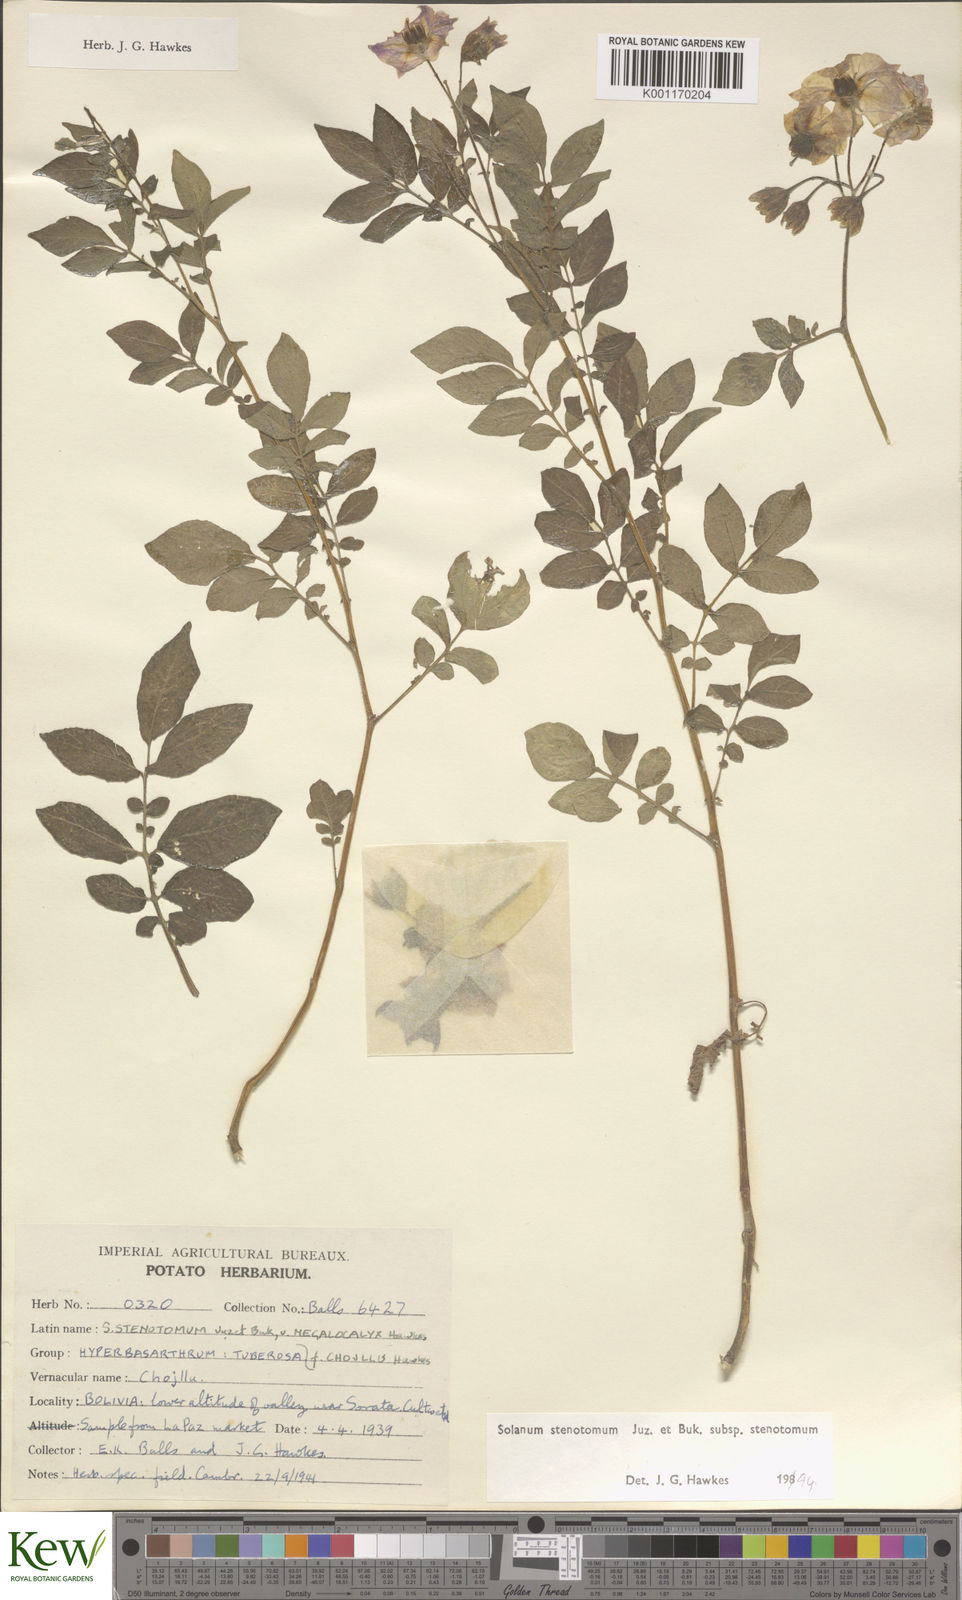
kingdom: Plantae
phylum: Tracheophyta
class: Magnoliopsida
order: Solanales
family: Solanaceae
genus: Solanum
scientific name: Solanum tuberosum
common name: Potato
